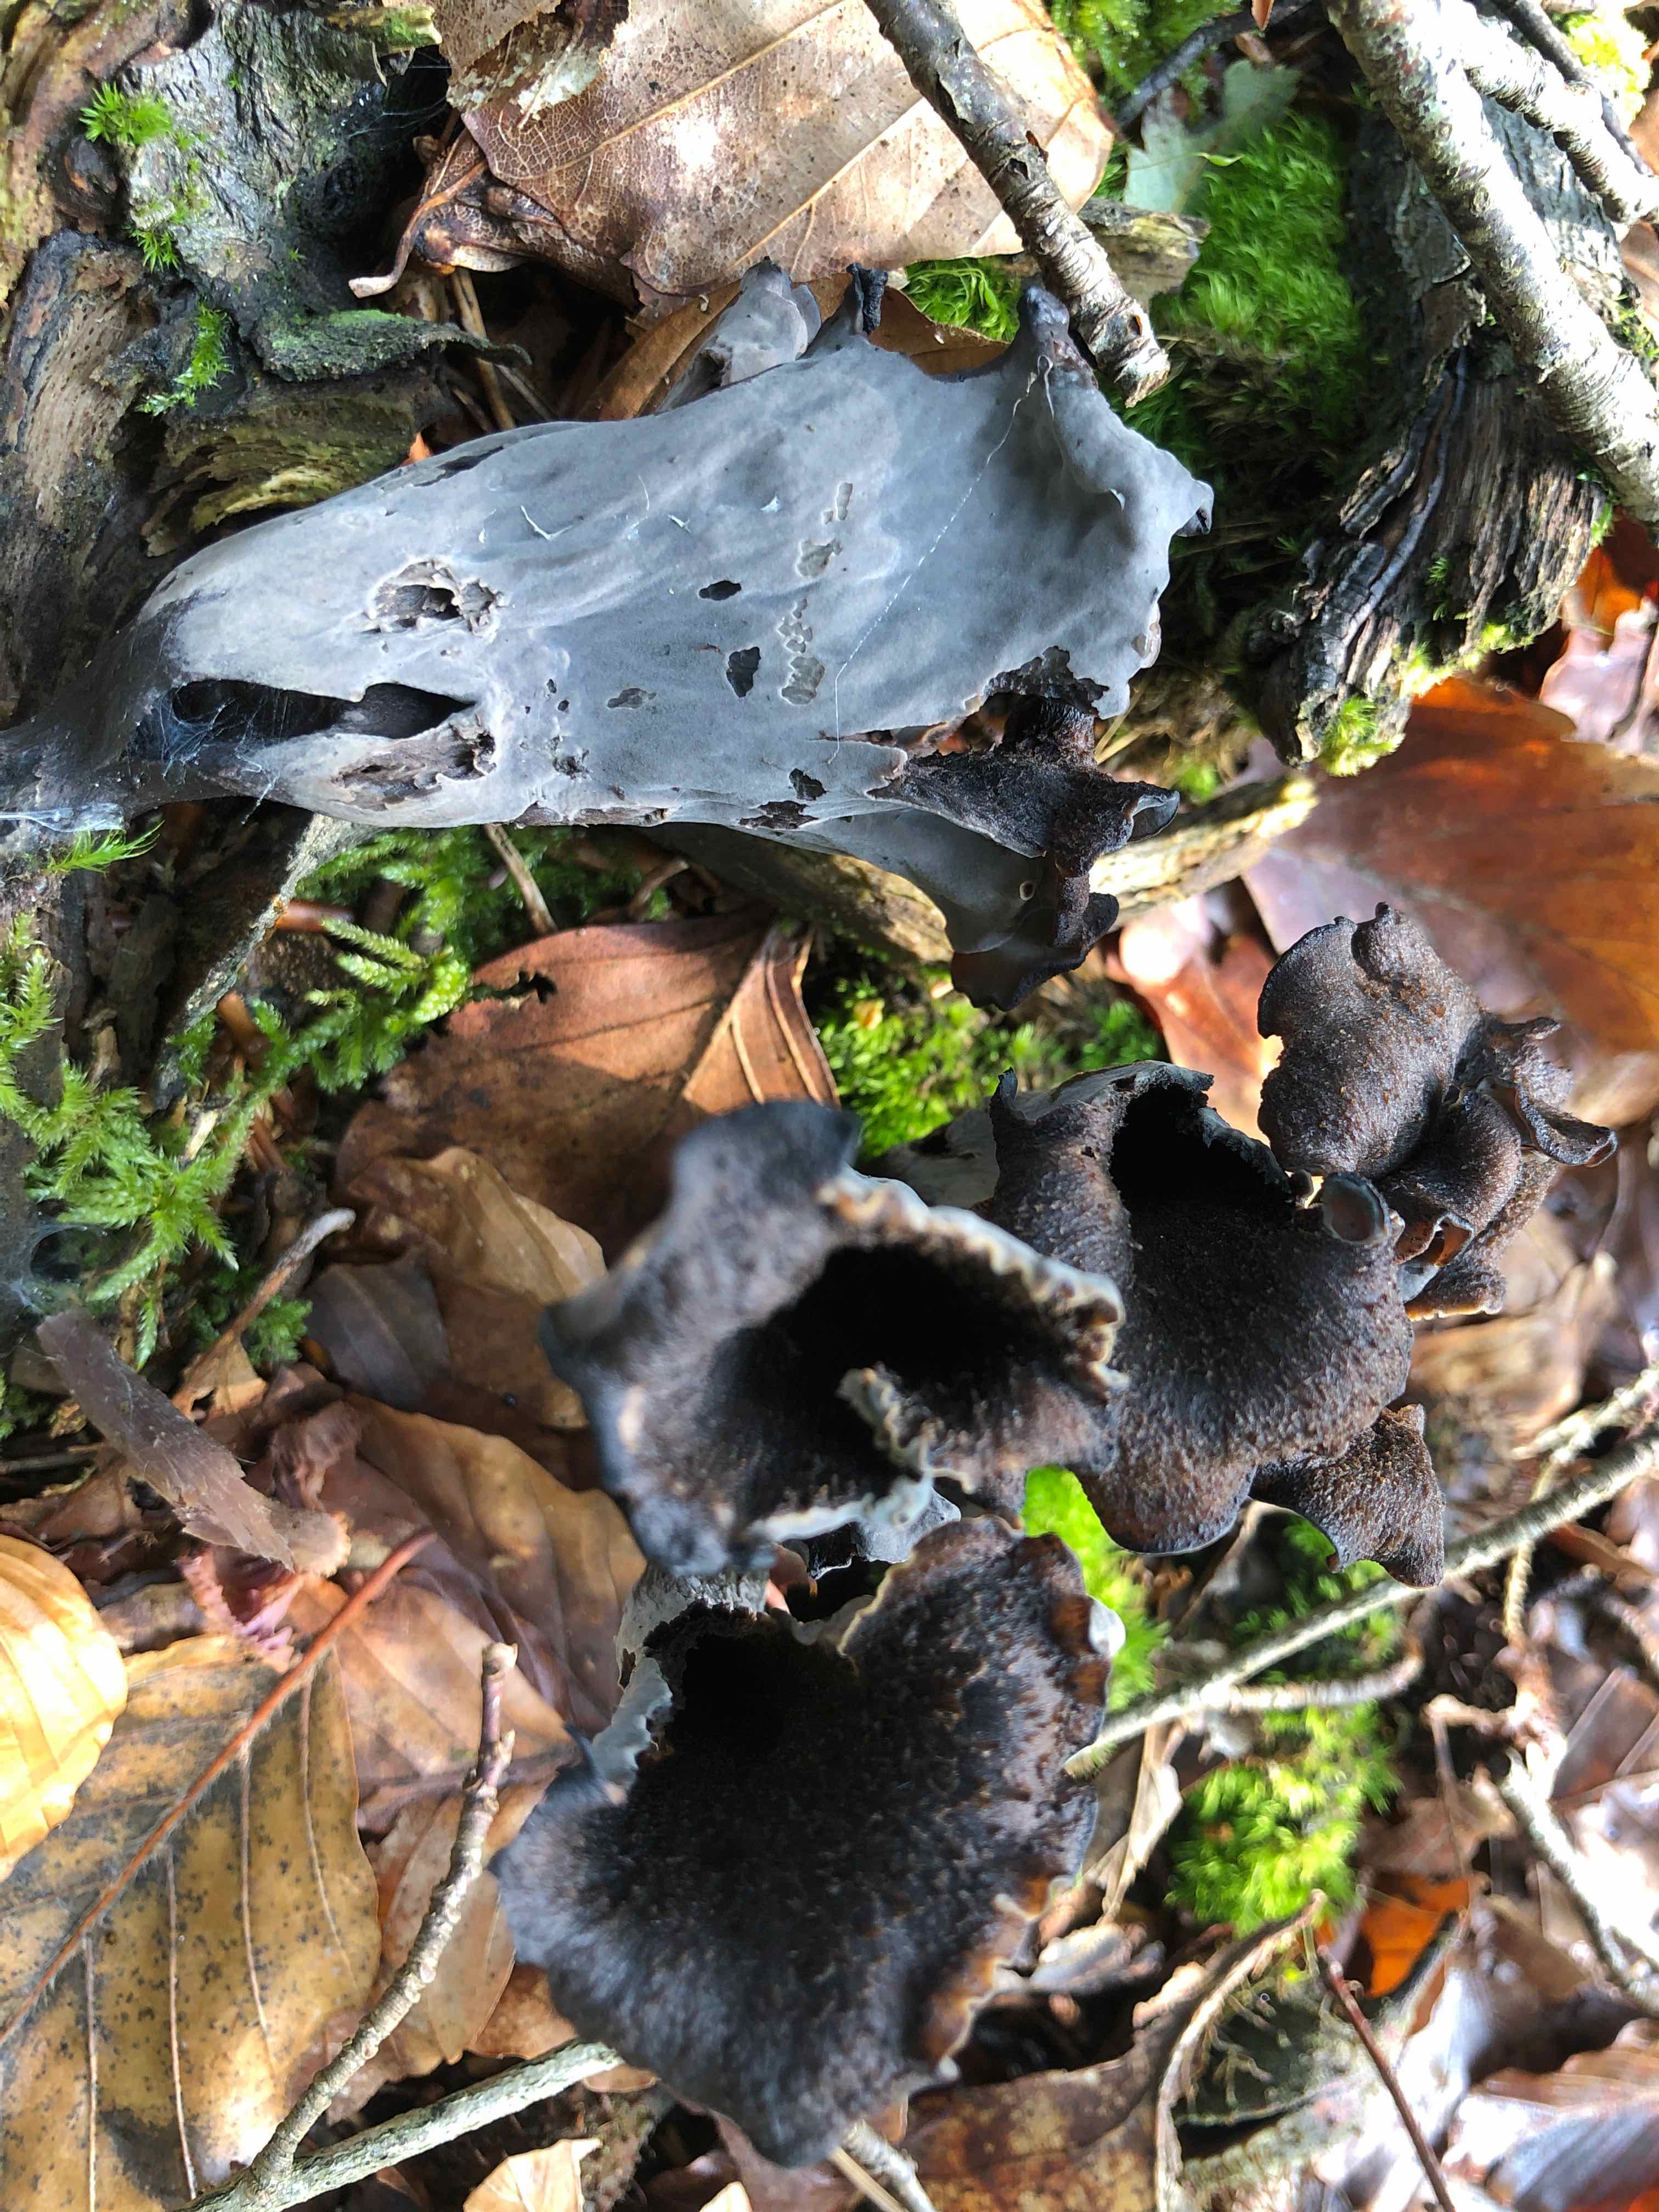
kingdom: Fungi
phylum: Basidiomycota
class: Agaricomycetes
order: Cantharellales
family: Hydnaceae
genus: Craterellus
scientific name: Craterellus cornucopioides
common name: trompetsvamp
